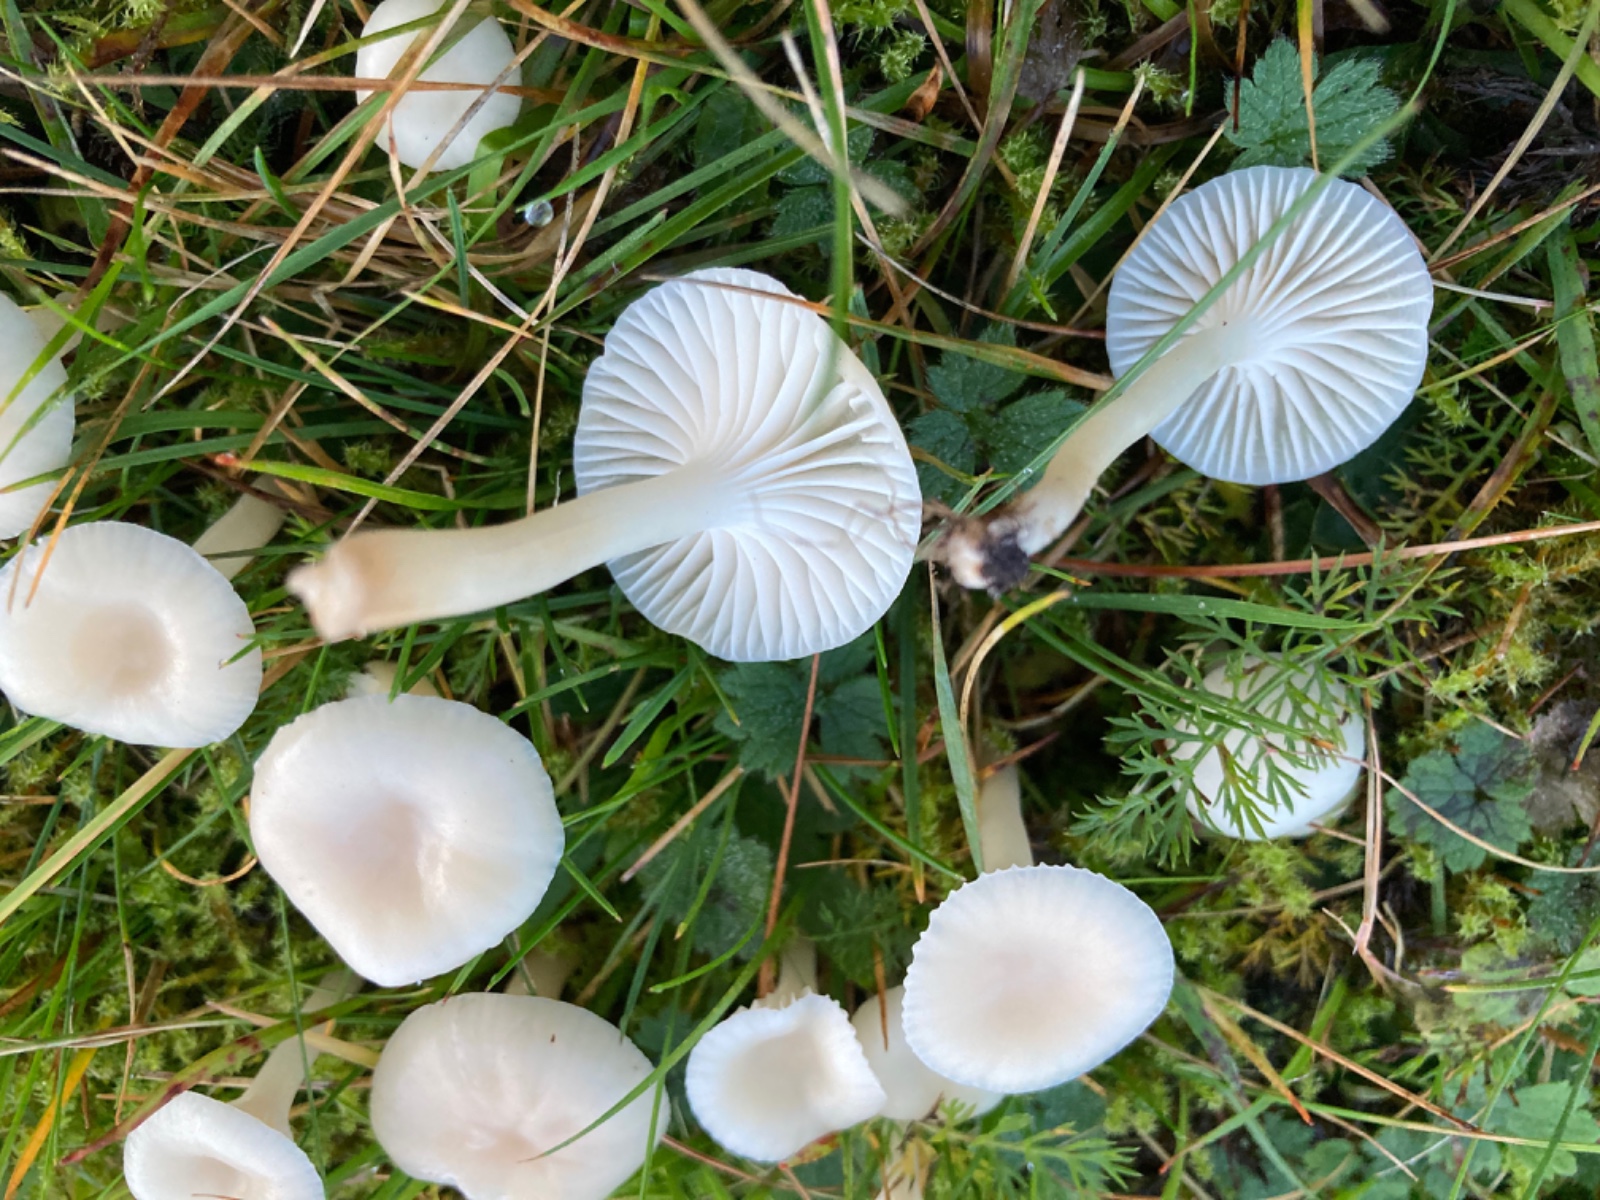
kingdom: Fungi
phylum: Basidiomycota
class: Agaricomycetes
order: Agaricales
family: Hygrophoraceae
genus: Cuphophyllus
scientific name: Cuphophyllus virgineus
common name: snehvid vokshat
